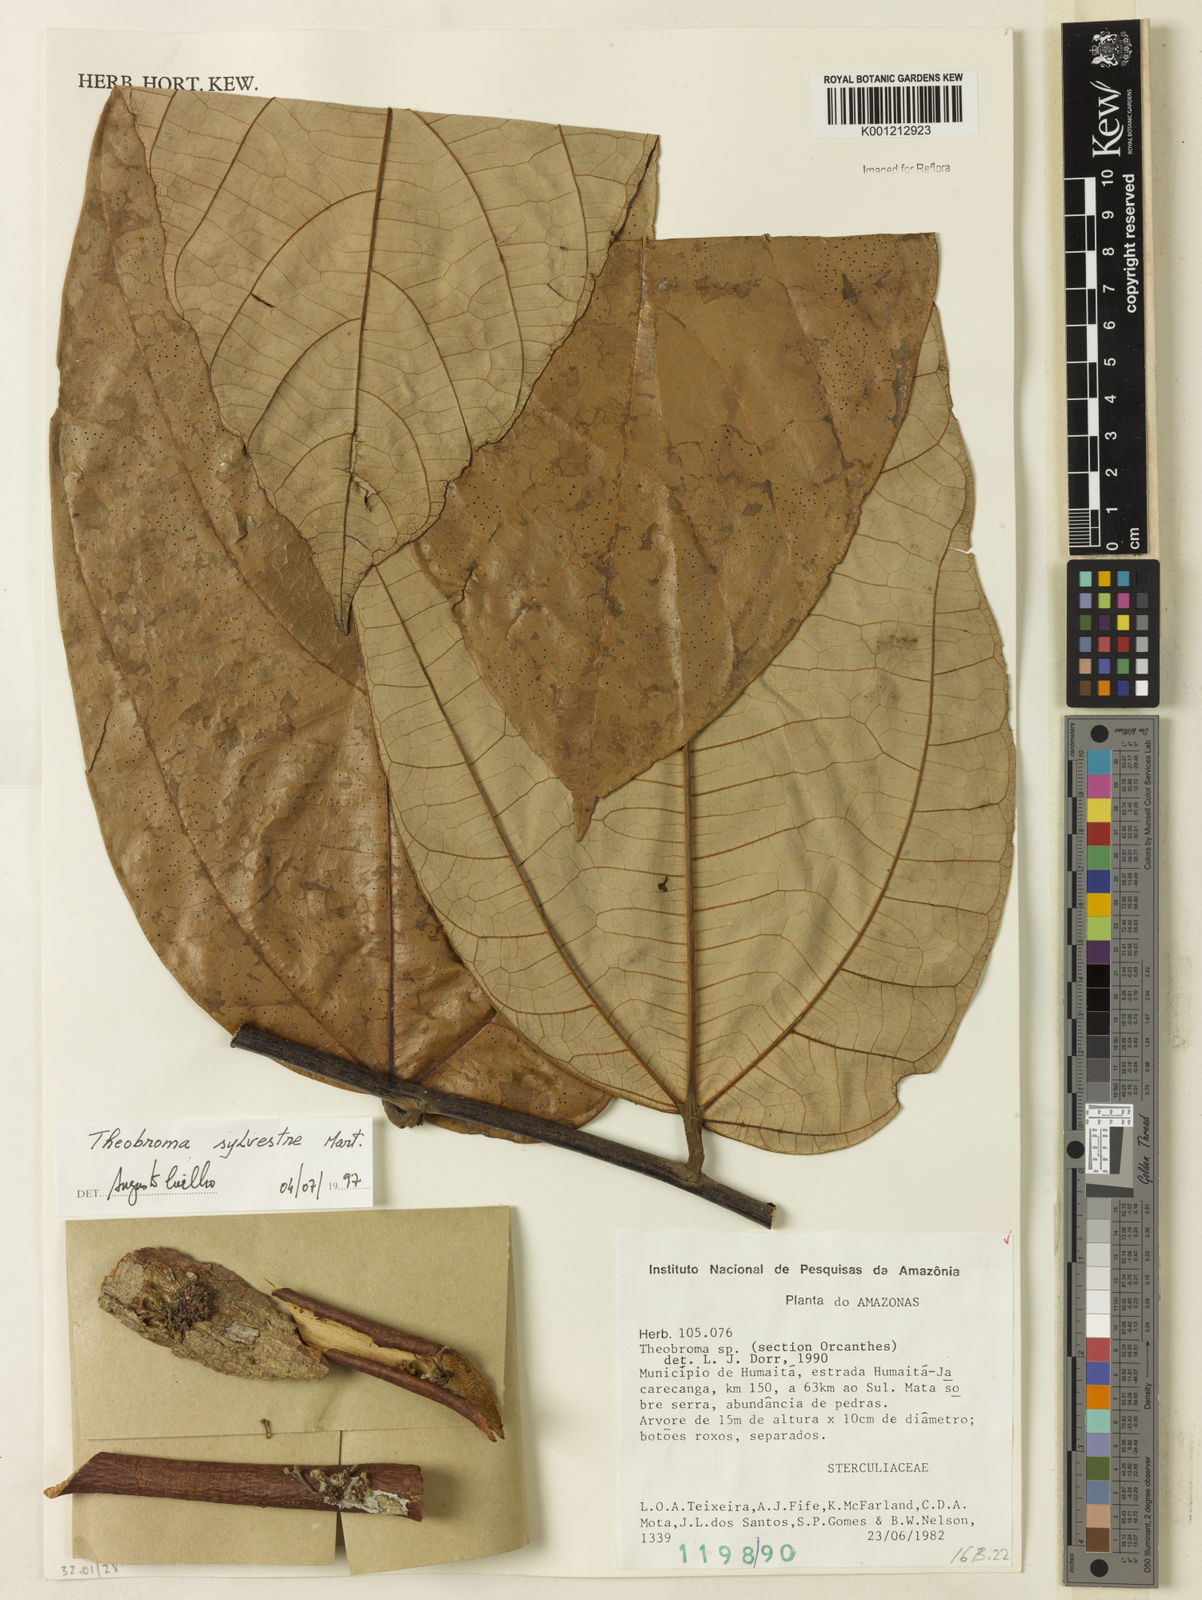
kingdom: Plantae
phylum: Tracheophyta
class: Magnoliopsida
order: Malvales
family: Malvaceae
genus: Theobroma
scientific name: Theobroma sylvestre
